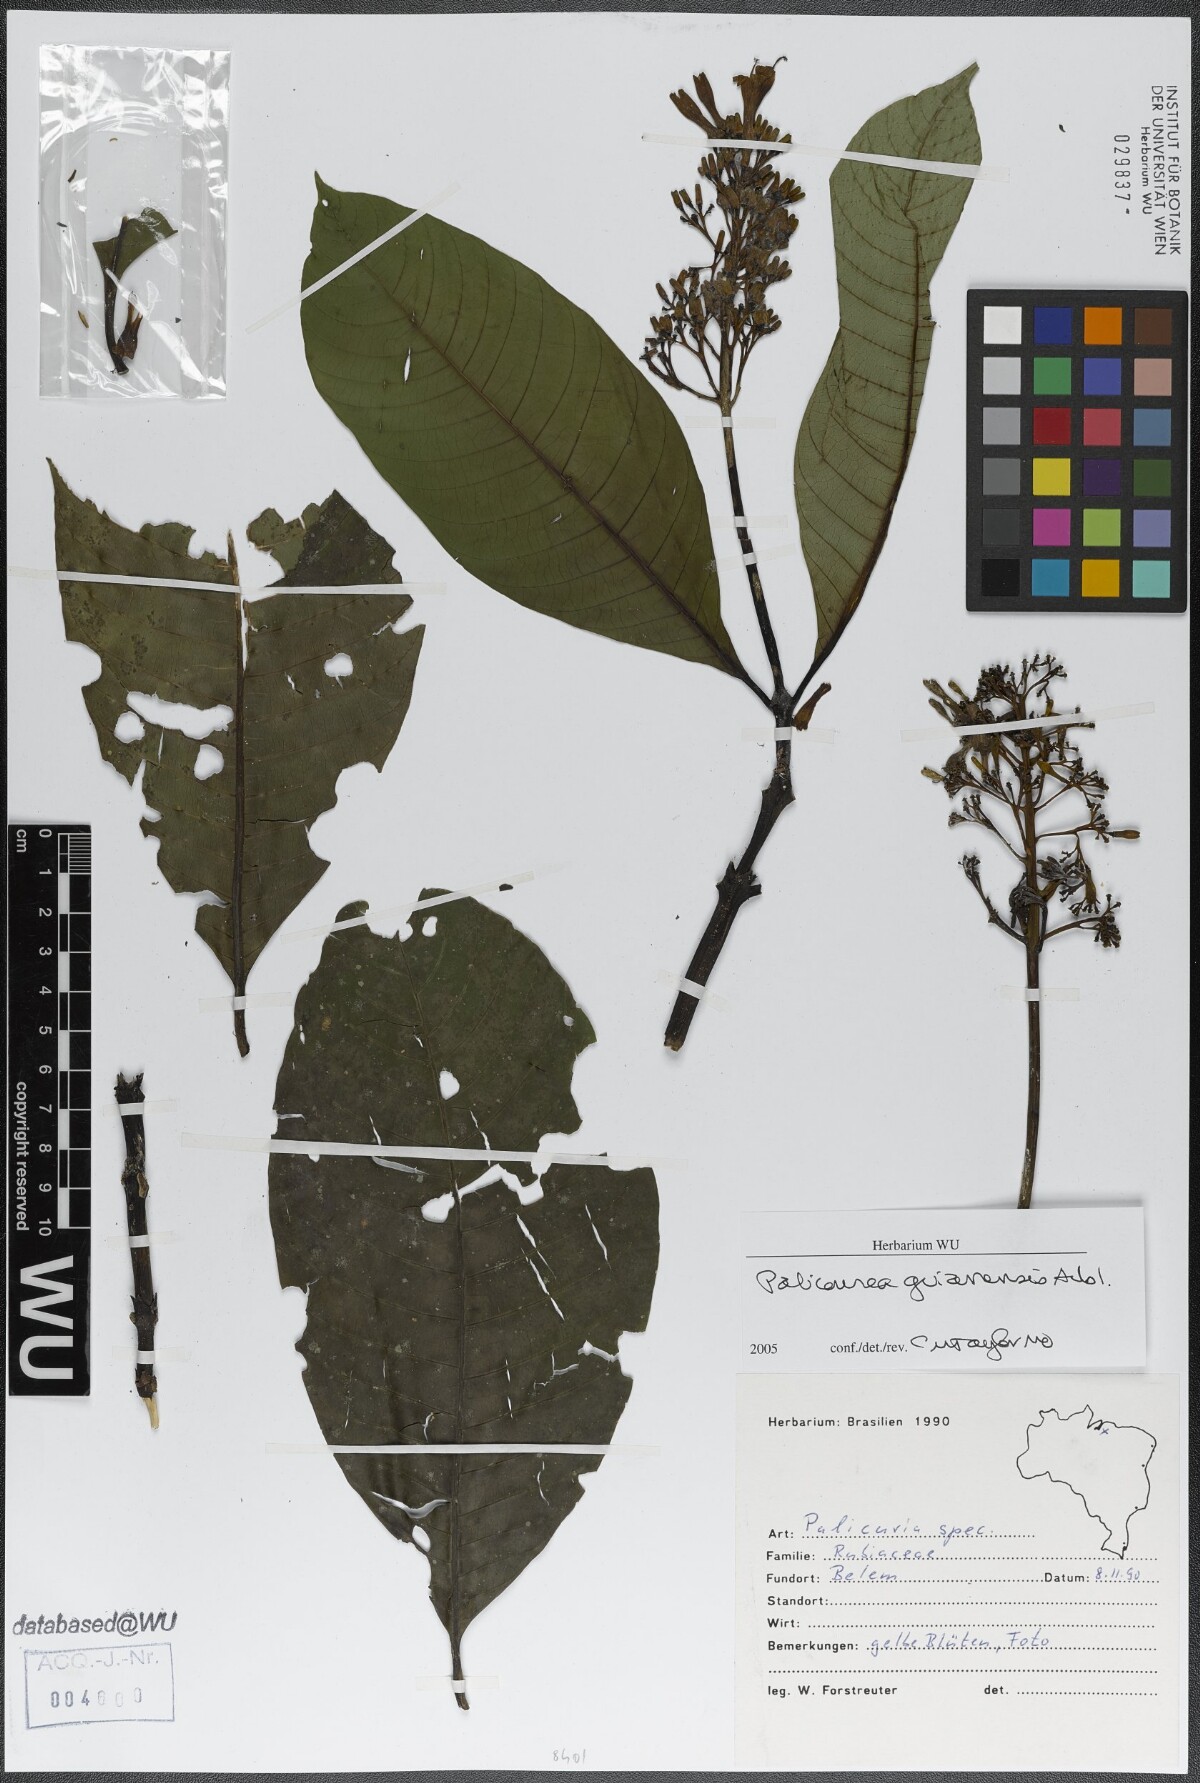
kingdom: Plantae
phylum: Tracheophyta
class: Magnoliopsida
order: Gentianales
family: Rubiaceae
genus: Palicourea
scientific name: Palicourea guianensis
